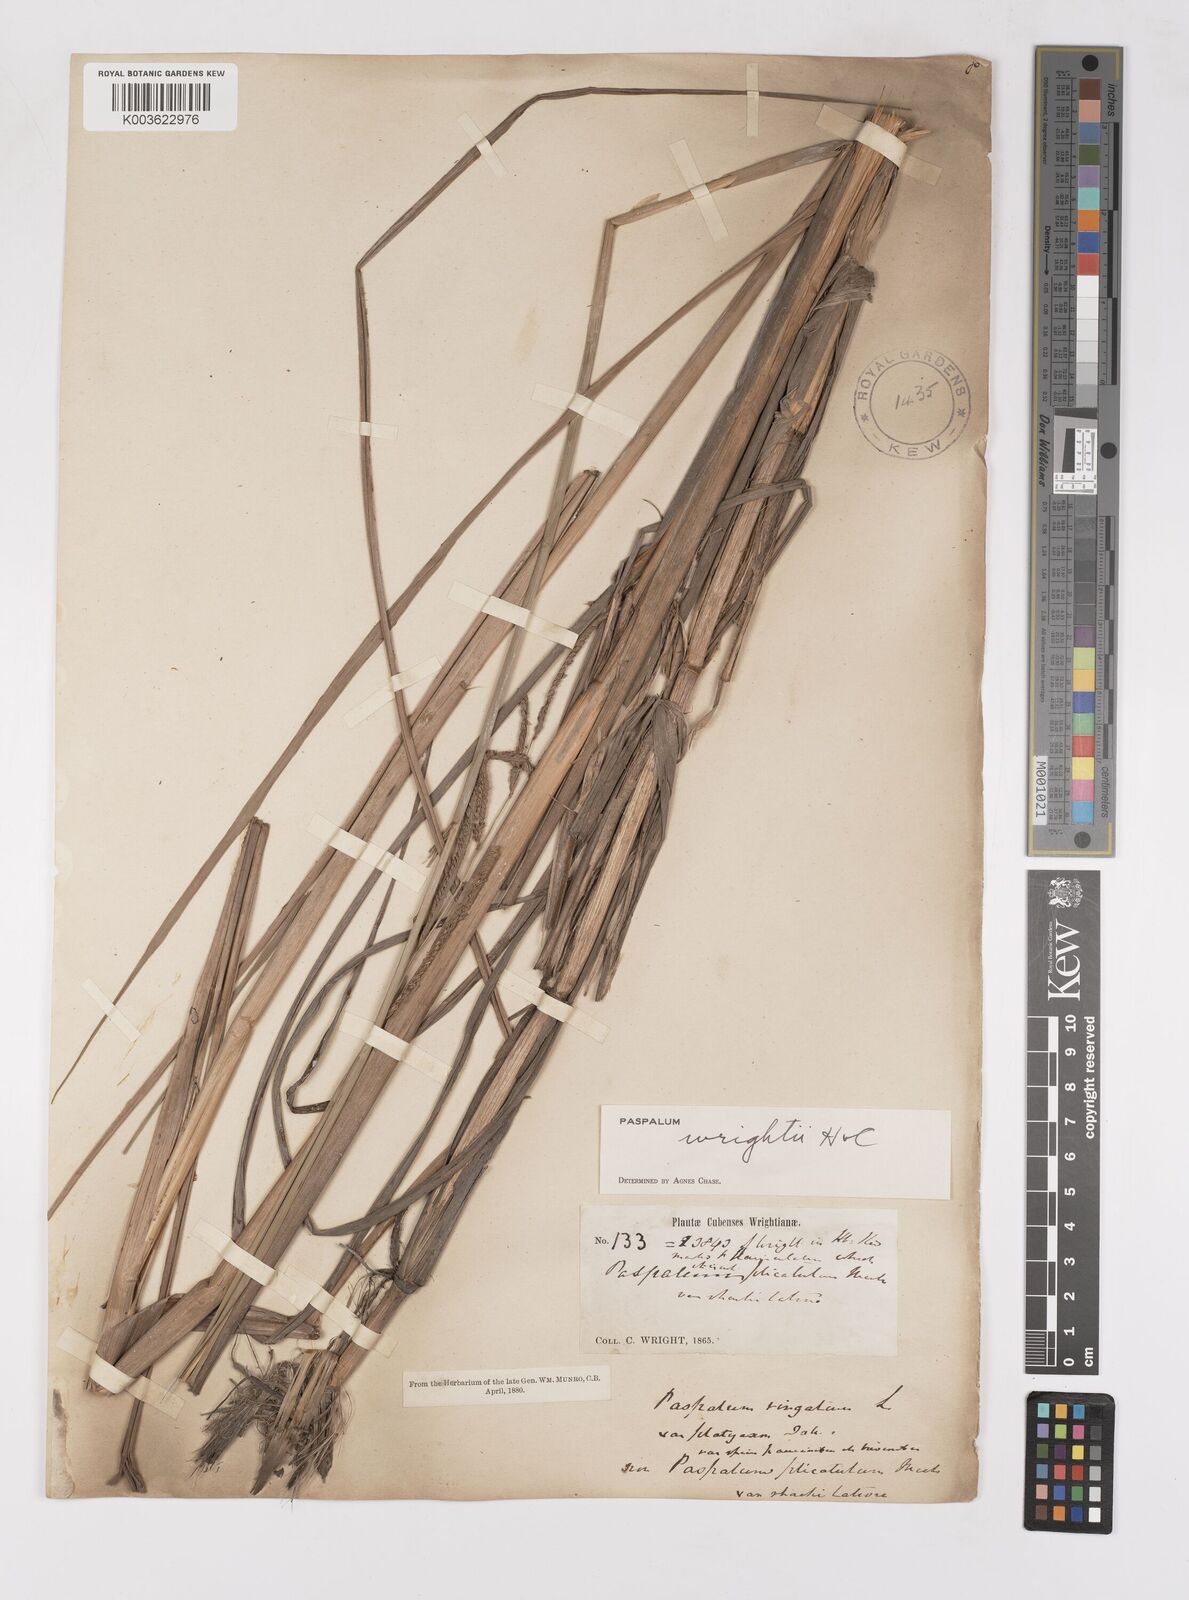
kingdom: Plantae
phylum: Tracheophyta
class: Liliopsida
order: Poales
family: Poaceae
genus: Paspalum
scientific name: Paspalum wrightii
